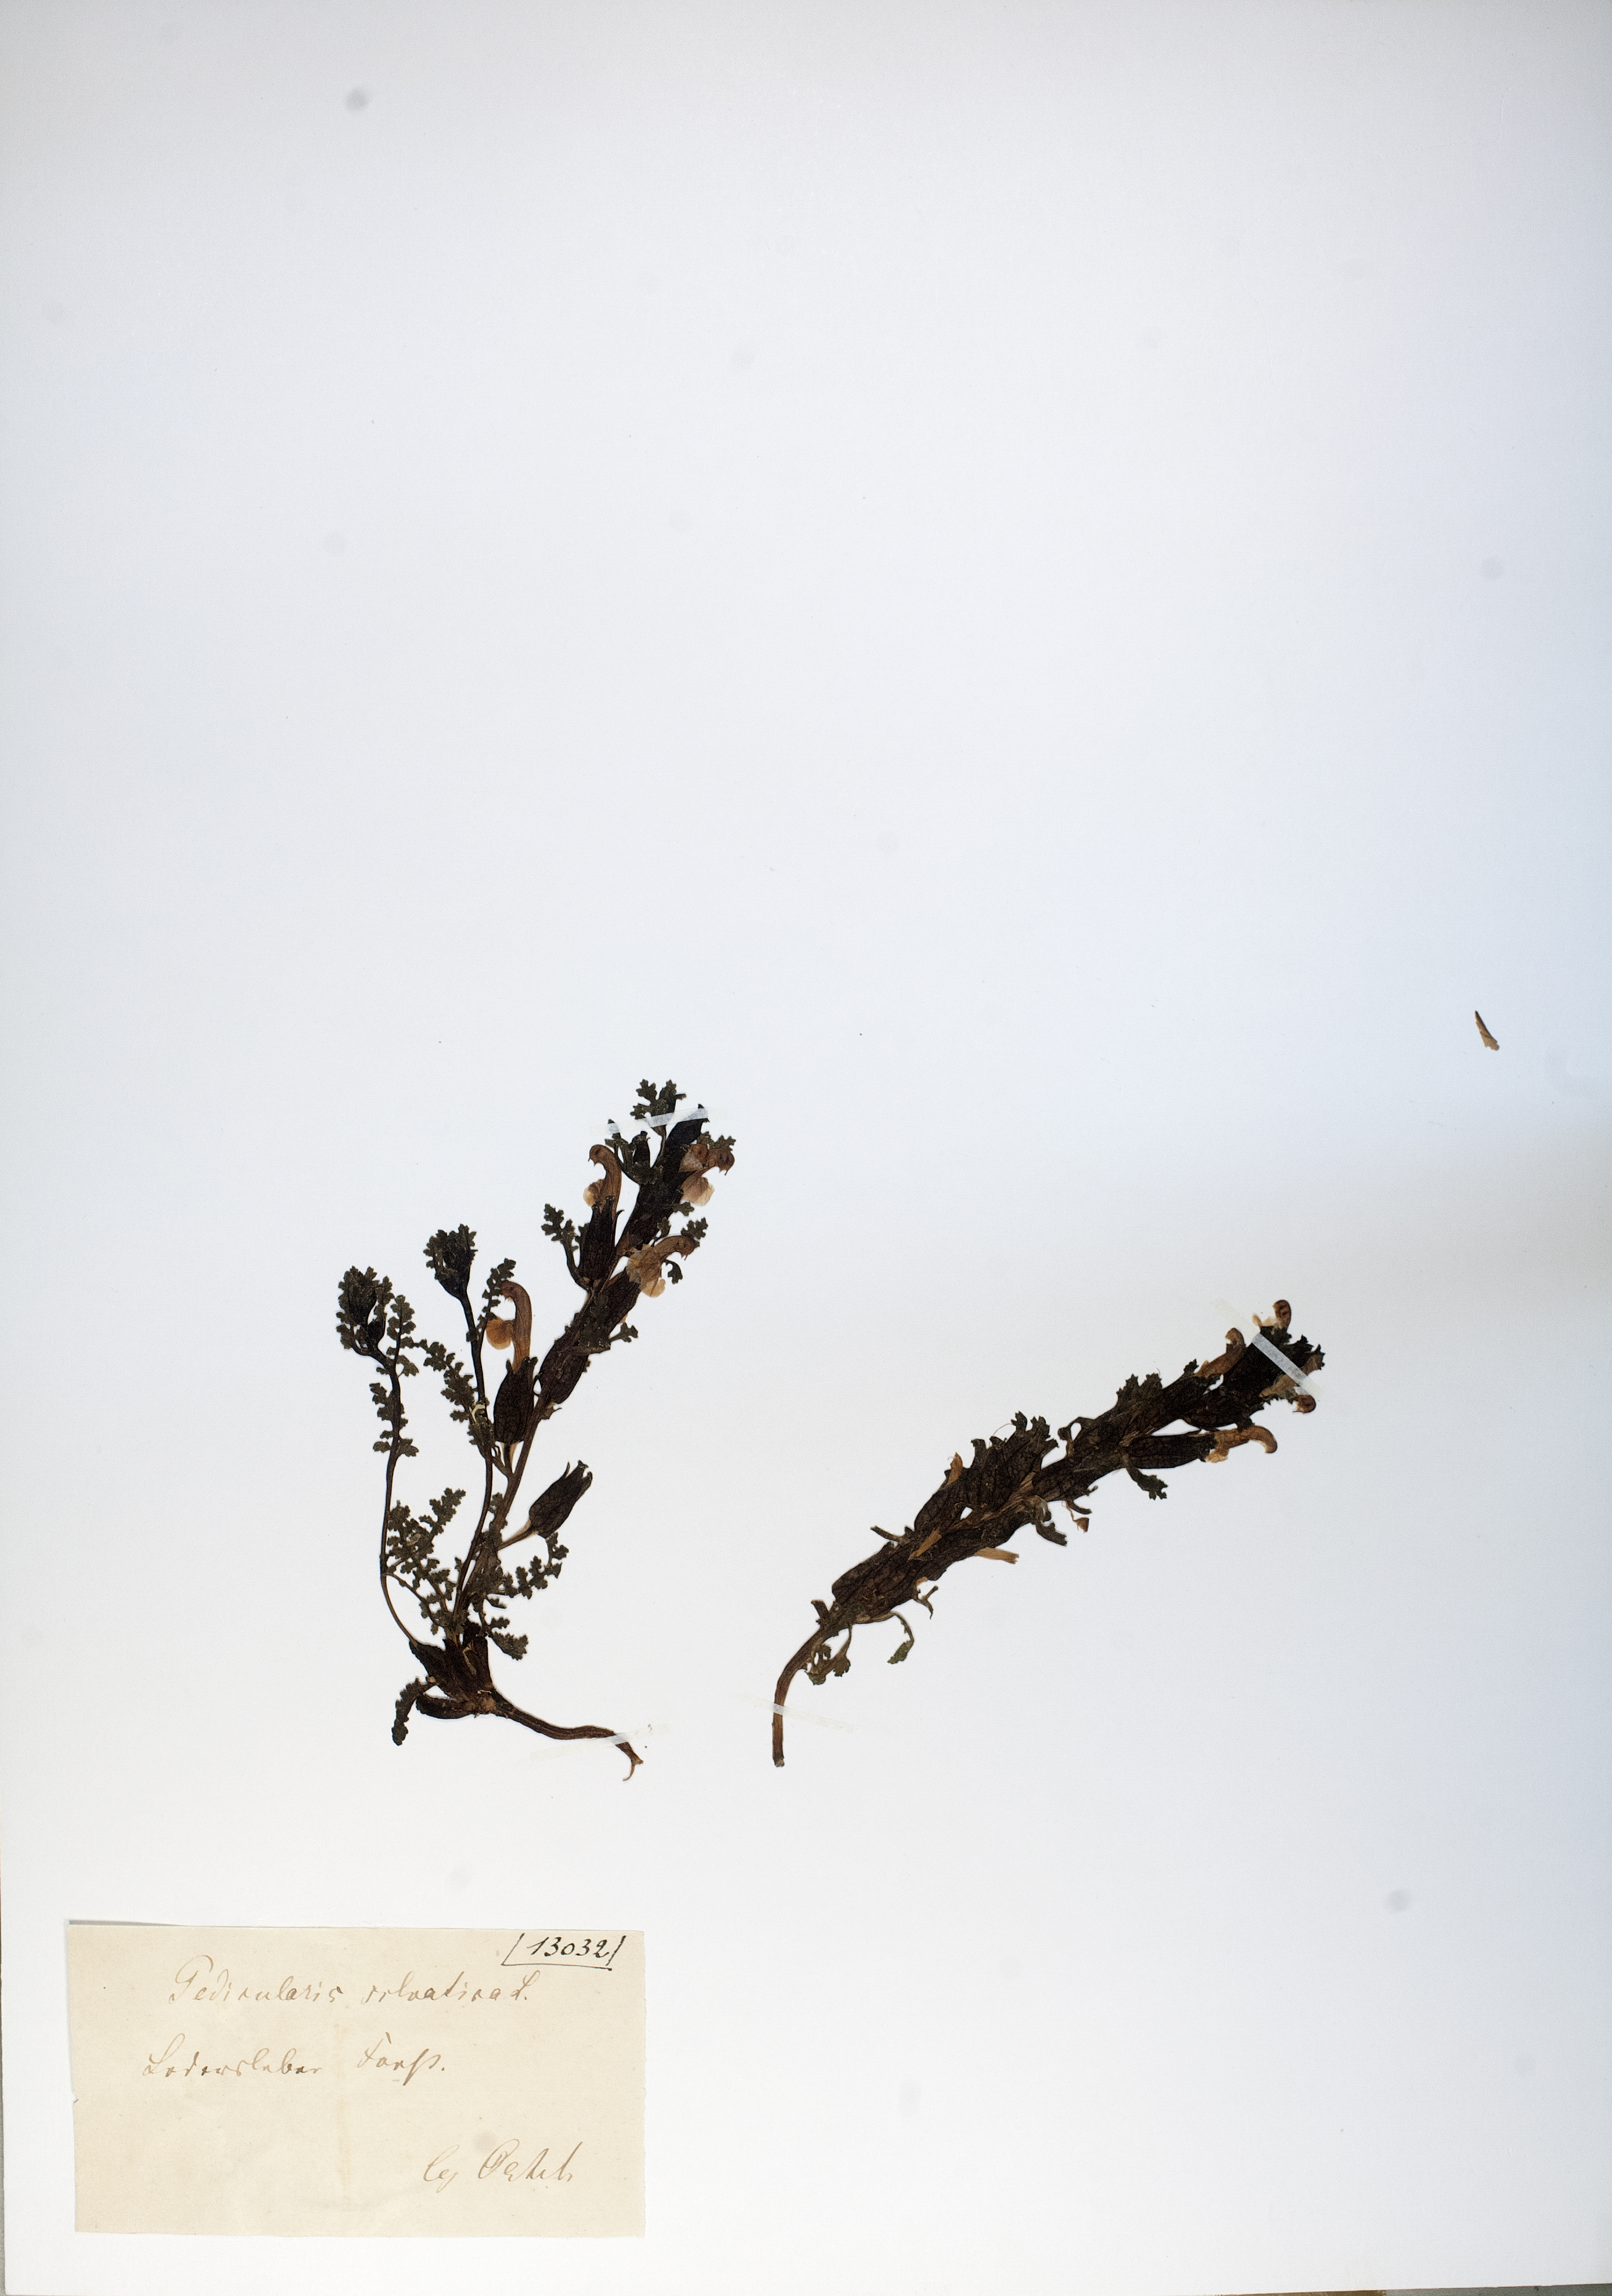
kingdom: Plantae
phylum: Tracheophyta
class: Magnoliopsida
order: Lamiales
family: Orobanchaceae
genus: Pedicularis
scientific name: Pedicularis sylvatica
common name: Lousewort
